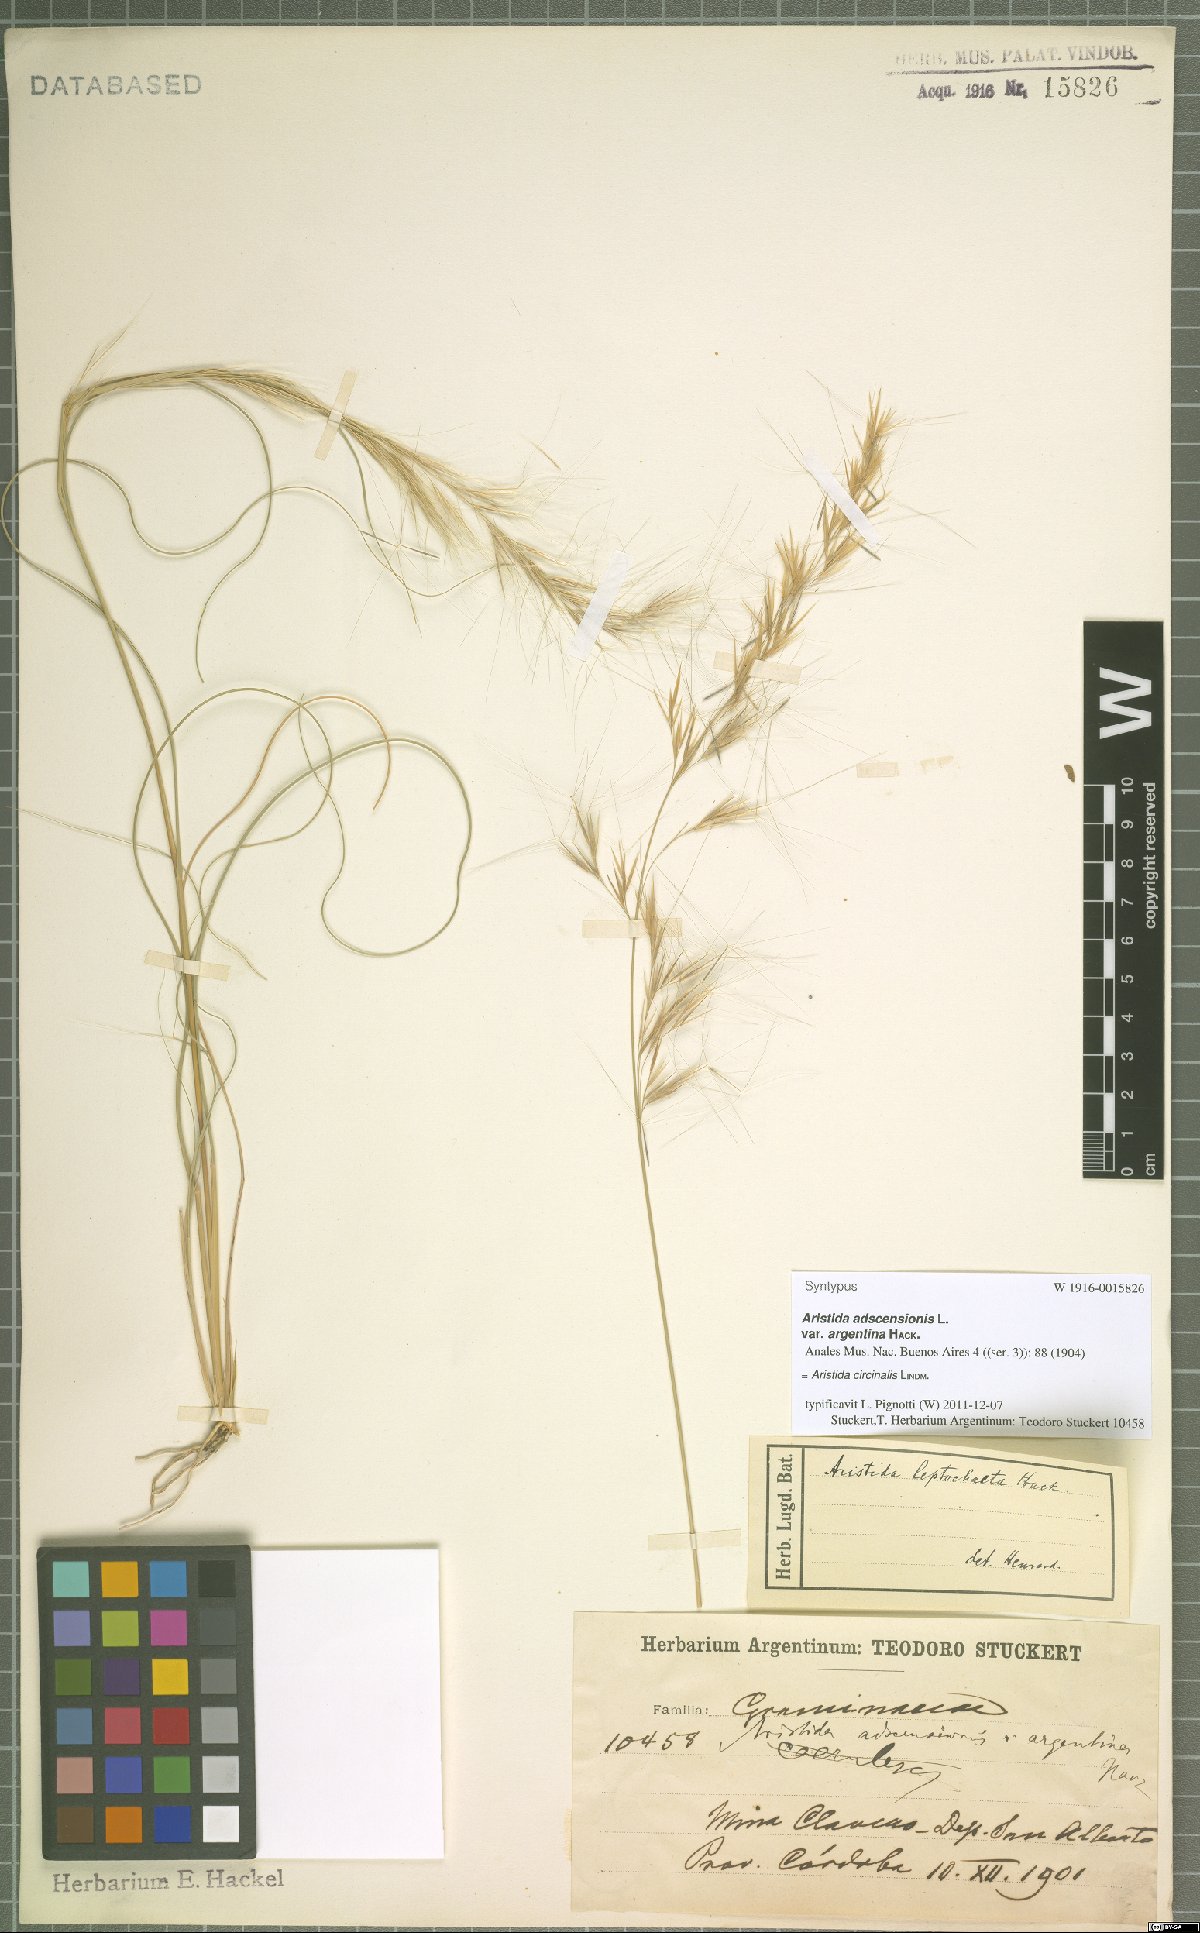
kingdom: Plantae
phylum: Tracheophyta
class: Liliopsida
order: Poales
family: Poaceae
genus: Aristida
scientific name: Aristida circinalis
